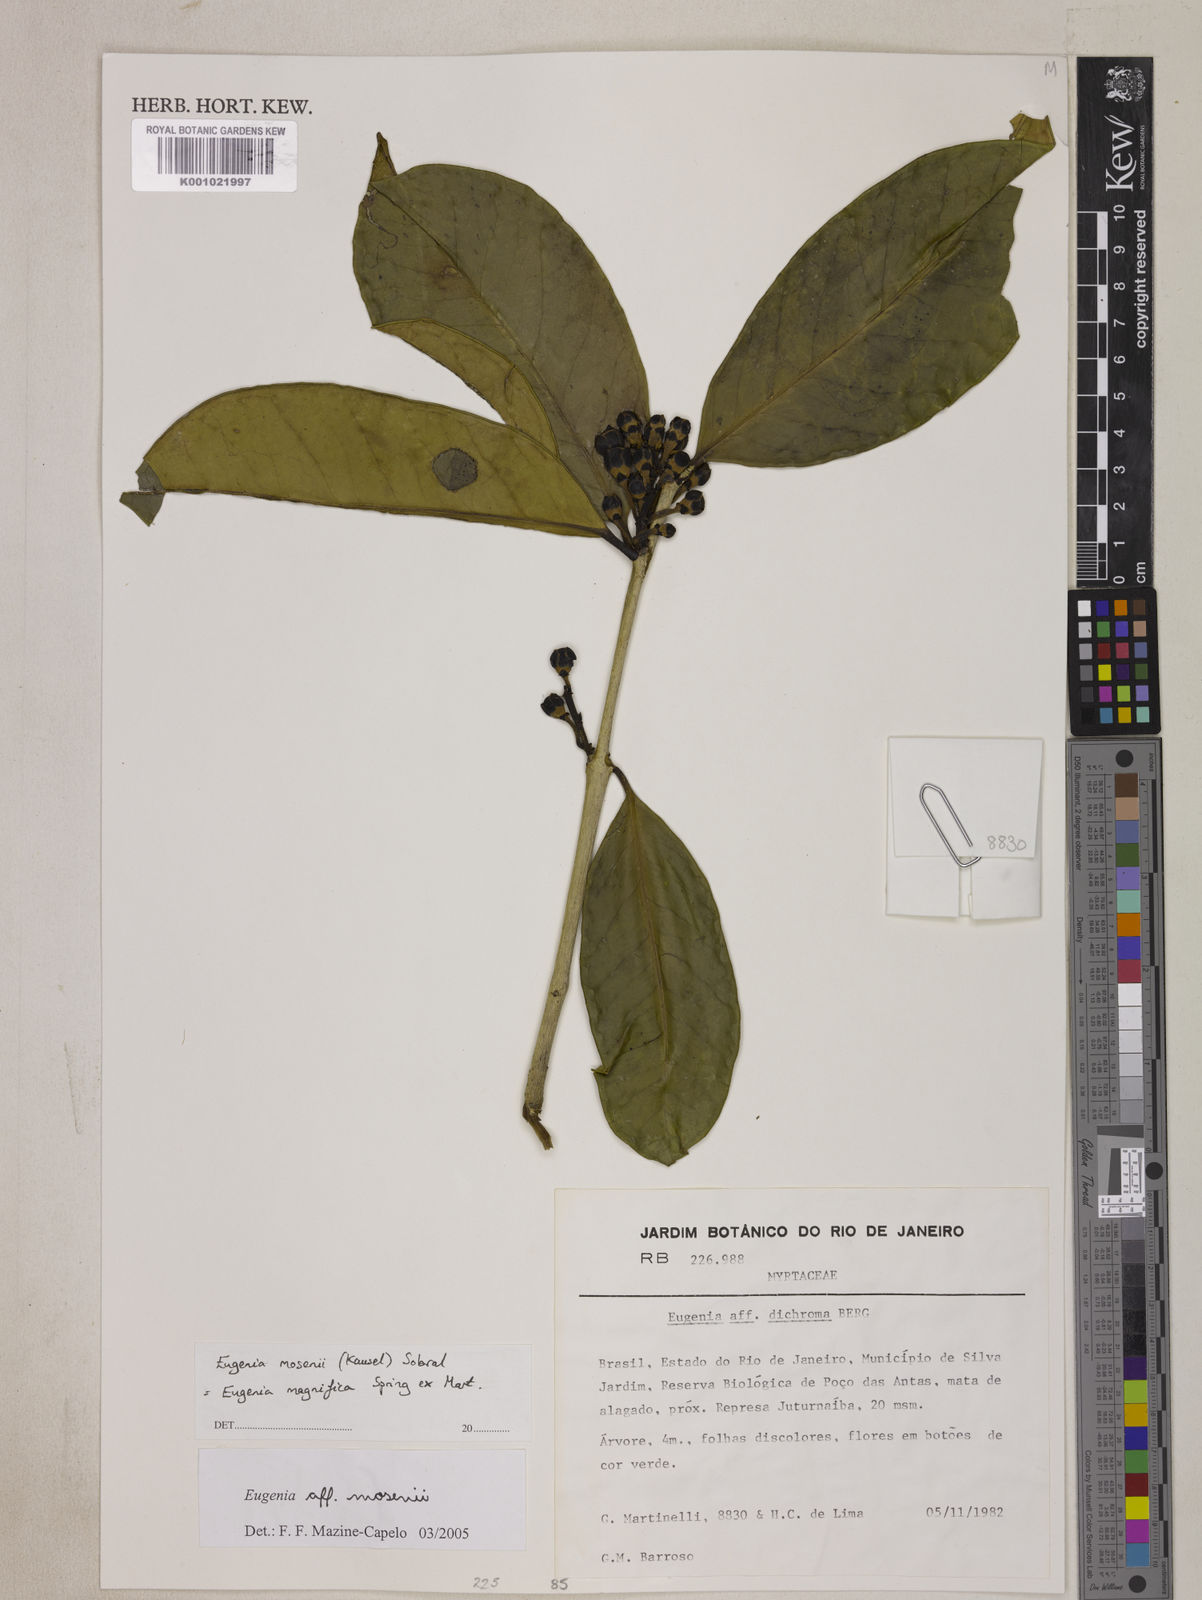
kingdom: Plantae
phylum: Tracheophyta
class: Magnoliopsida
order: Myrtales
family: Myrtaceae
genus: Eugenia
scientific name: Eugenia
